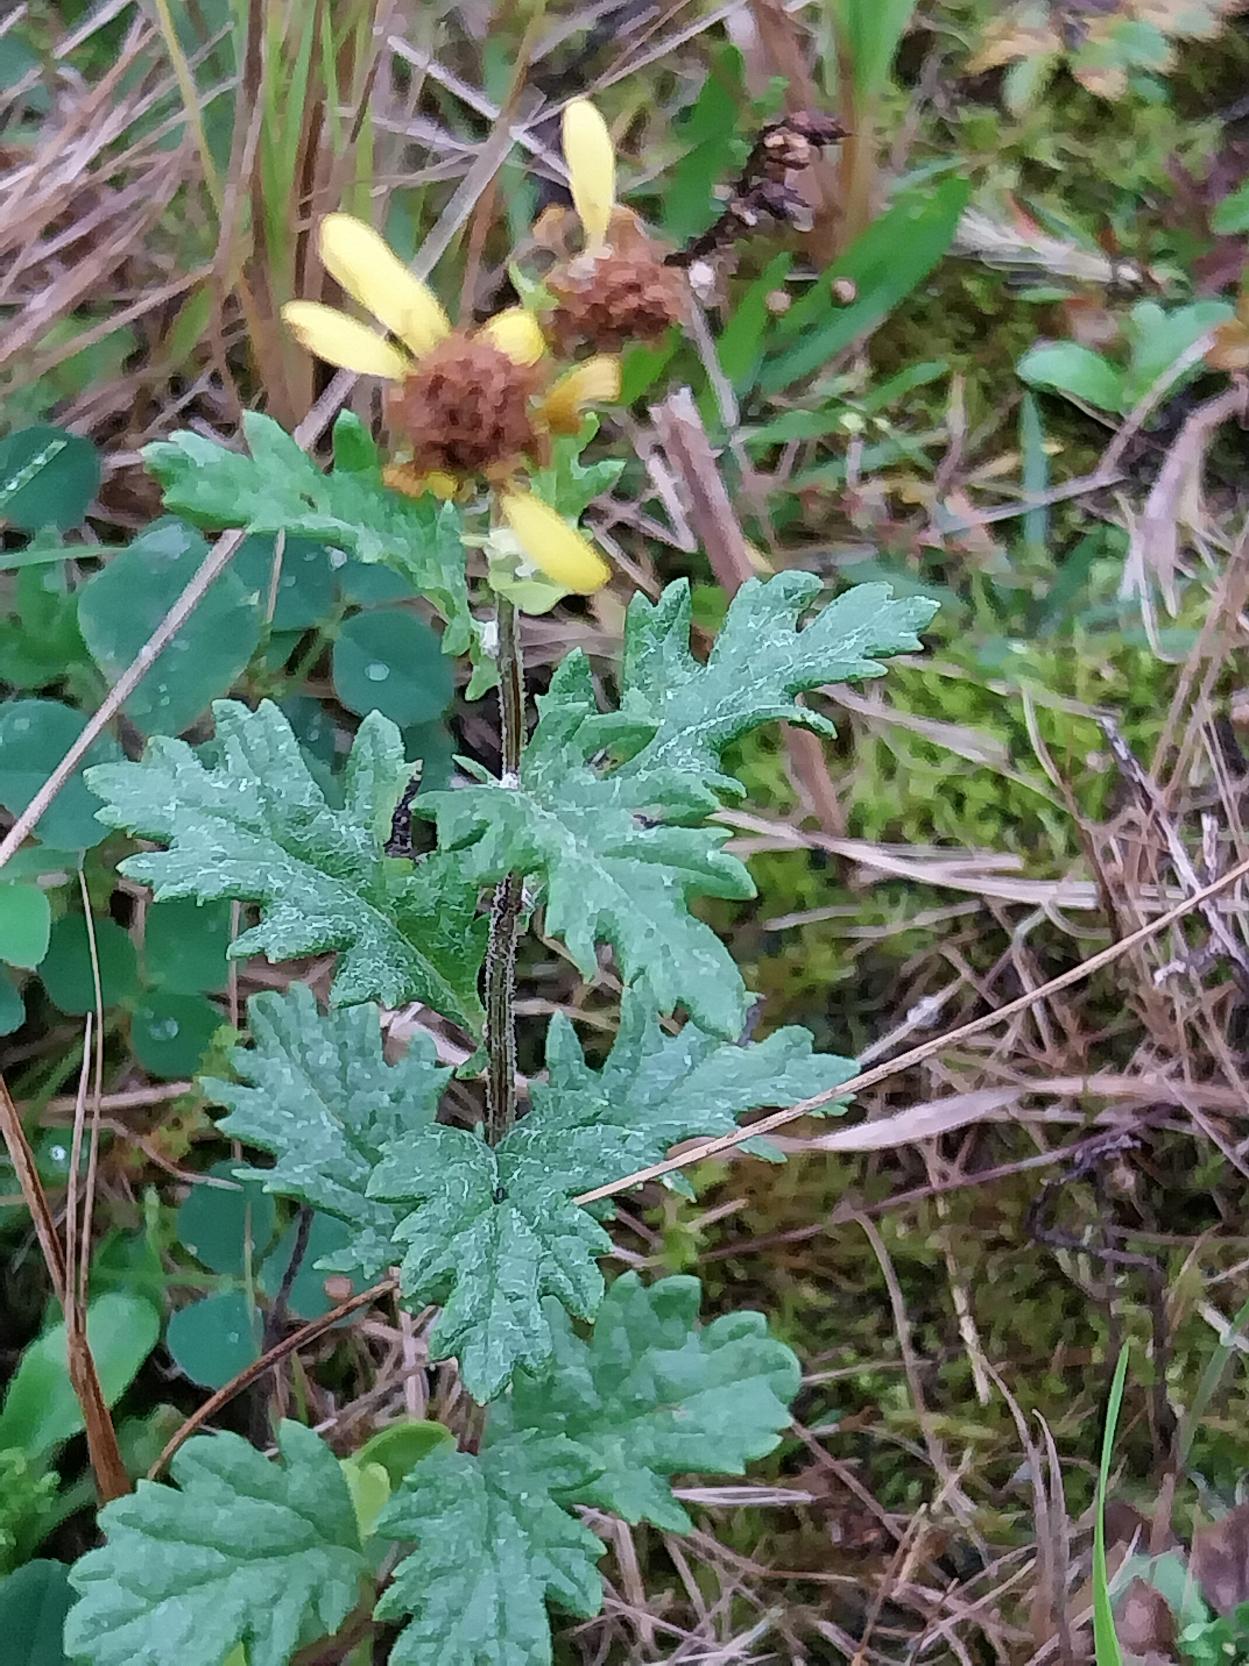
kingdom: Plantae
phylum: Tracheophyta
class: Magnoliopsida
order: Asterales
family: Asteraceae
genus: Jacobaea
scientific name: Jacobaea erucifolia
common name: Smalfliget brandbæger
